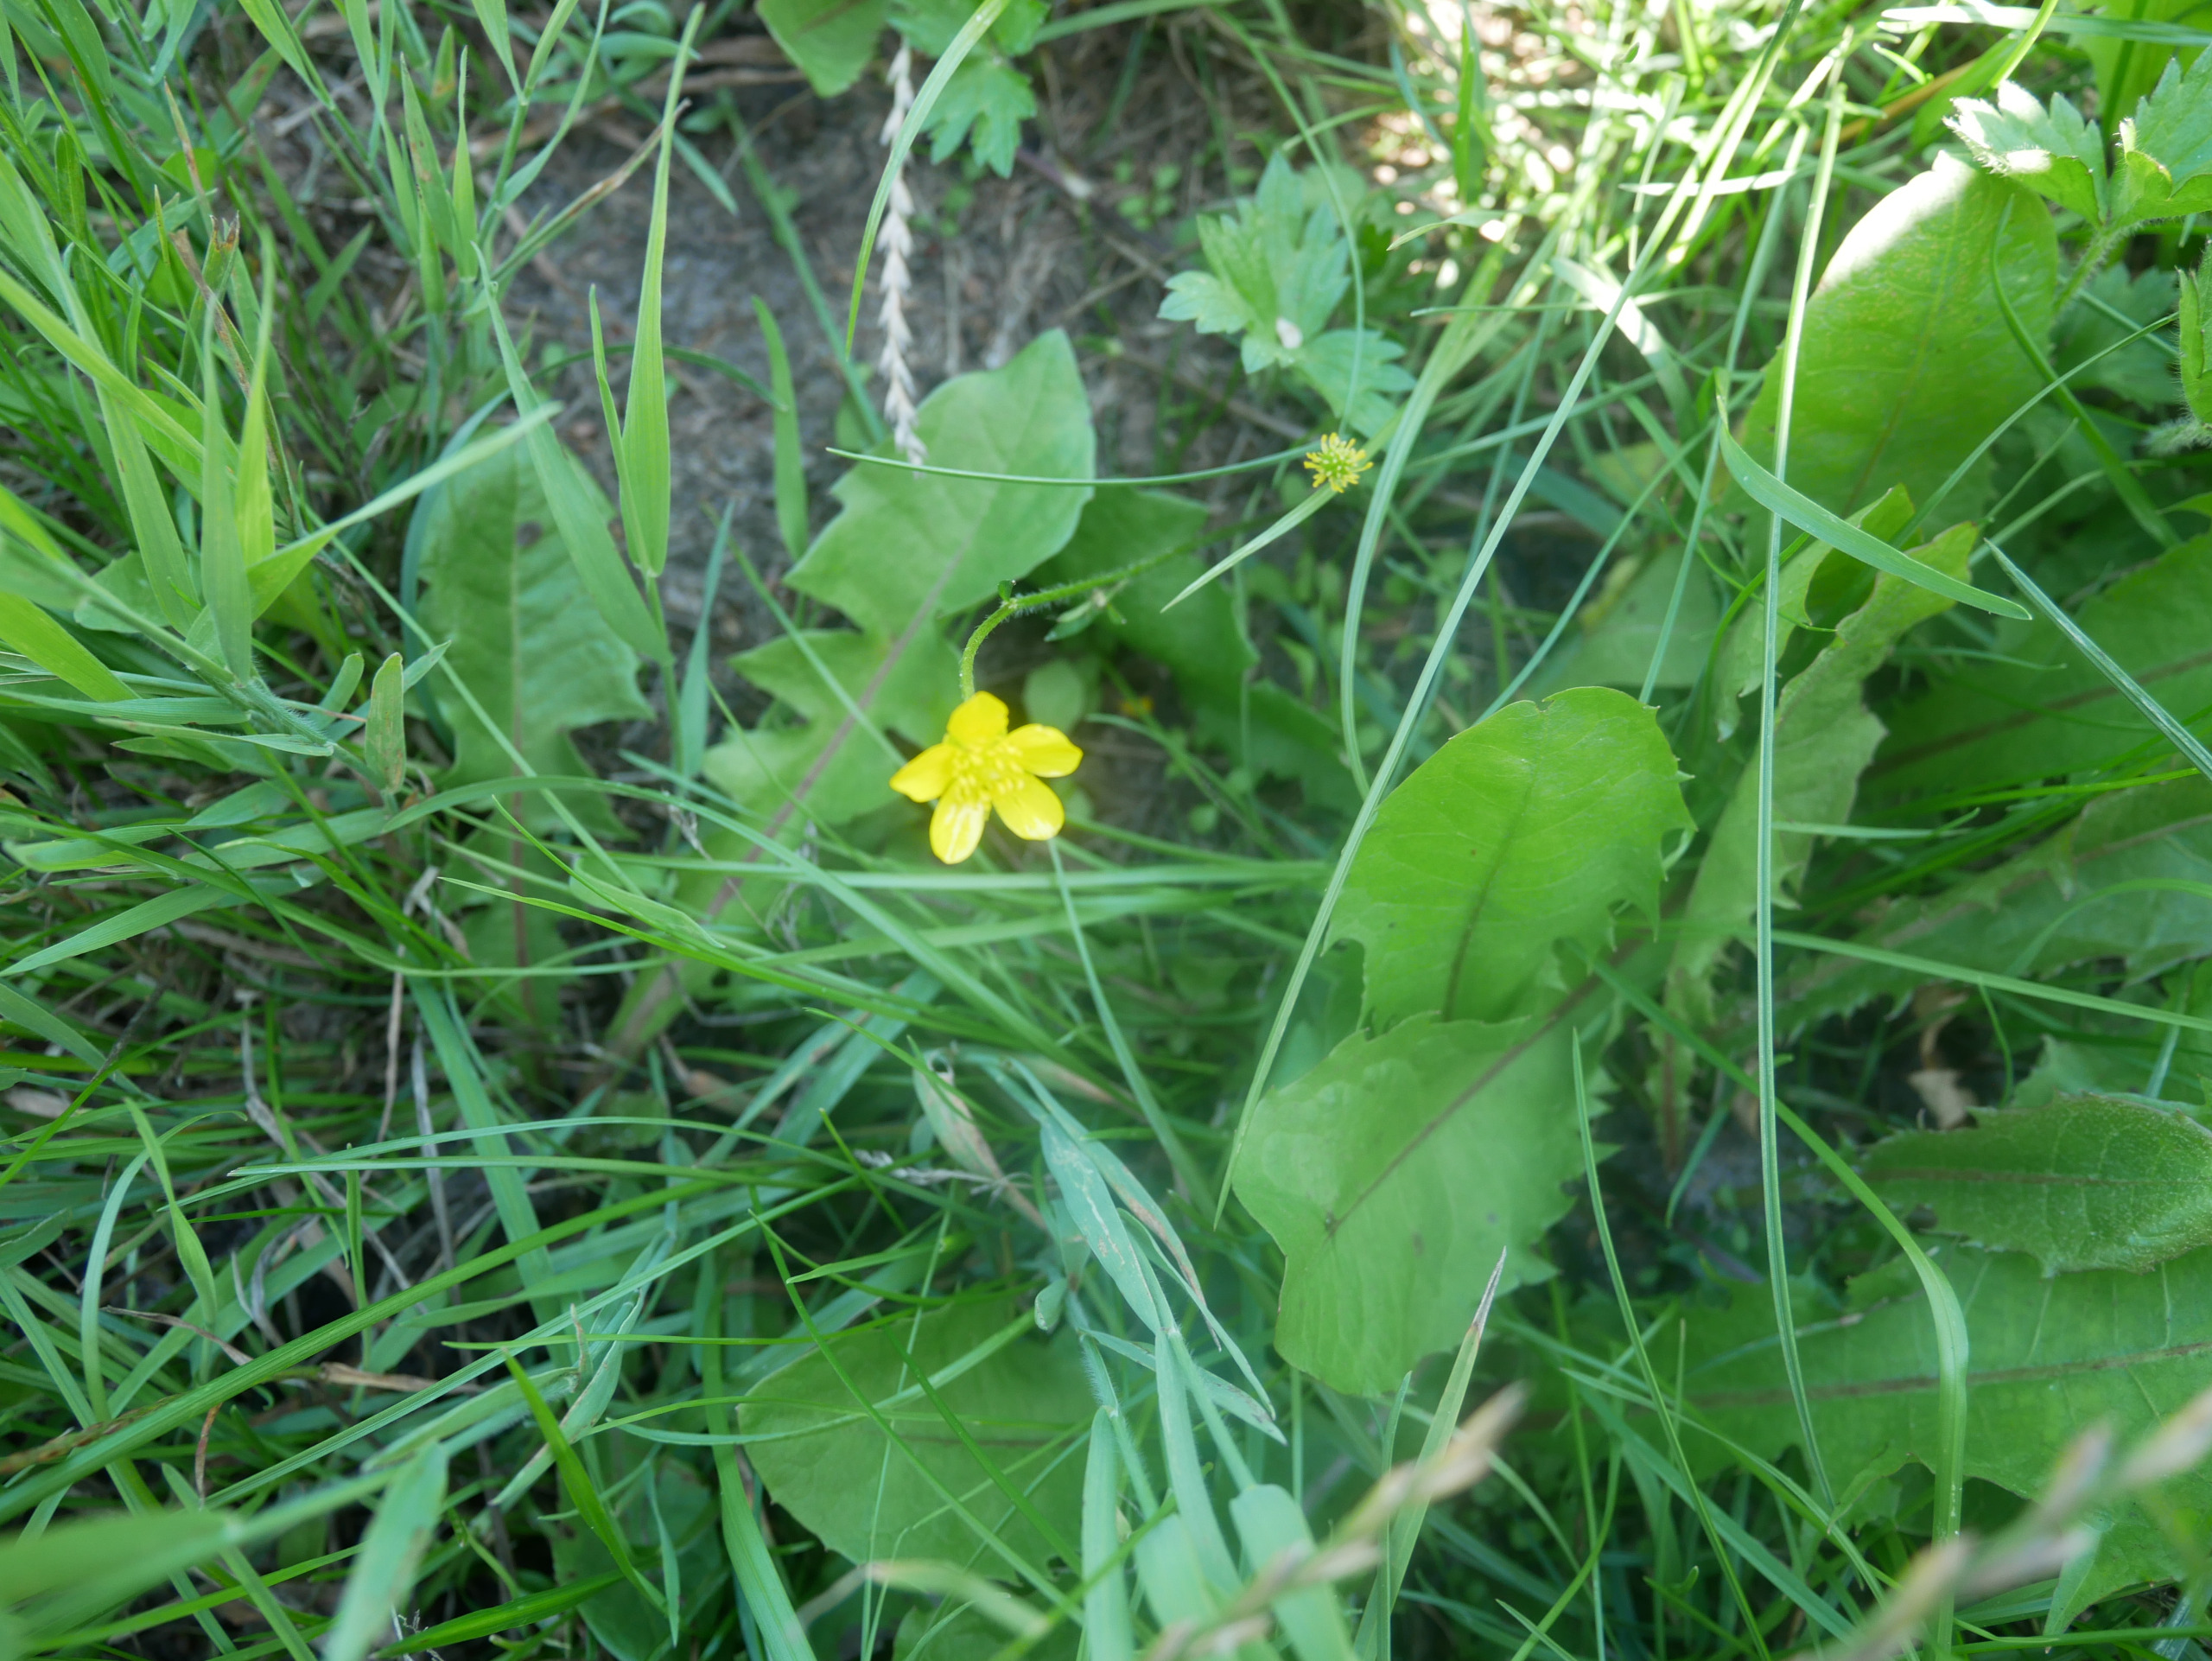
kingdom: Plantae
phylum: Tracheophyta
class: Magnoliopsida
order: Ranunculales
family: Ranunculaceae
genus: Ranunculus
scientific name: Ranunculus
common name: Ranunkelslægten
